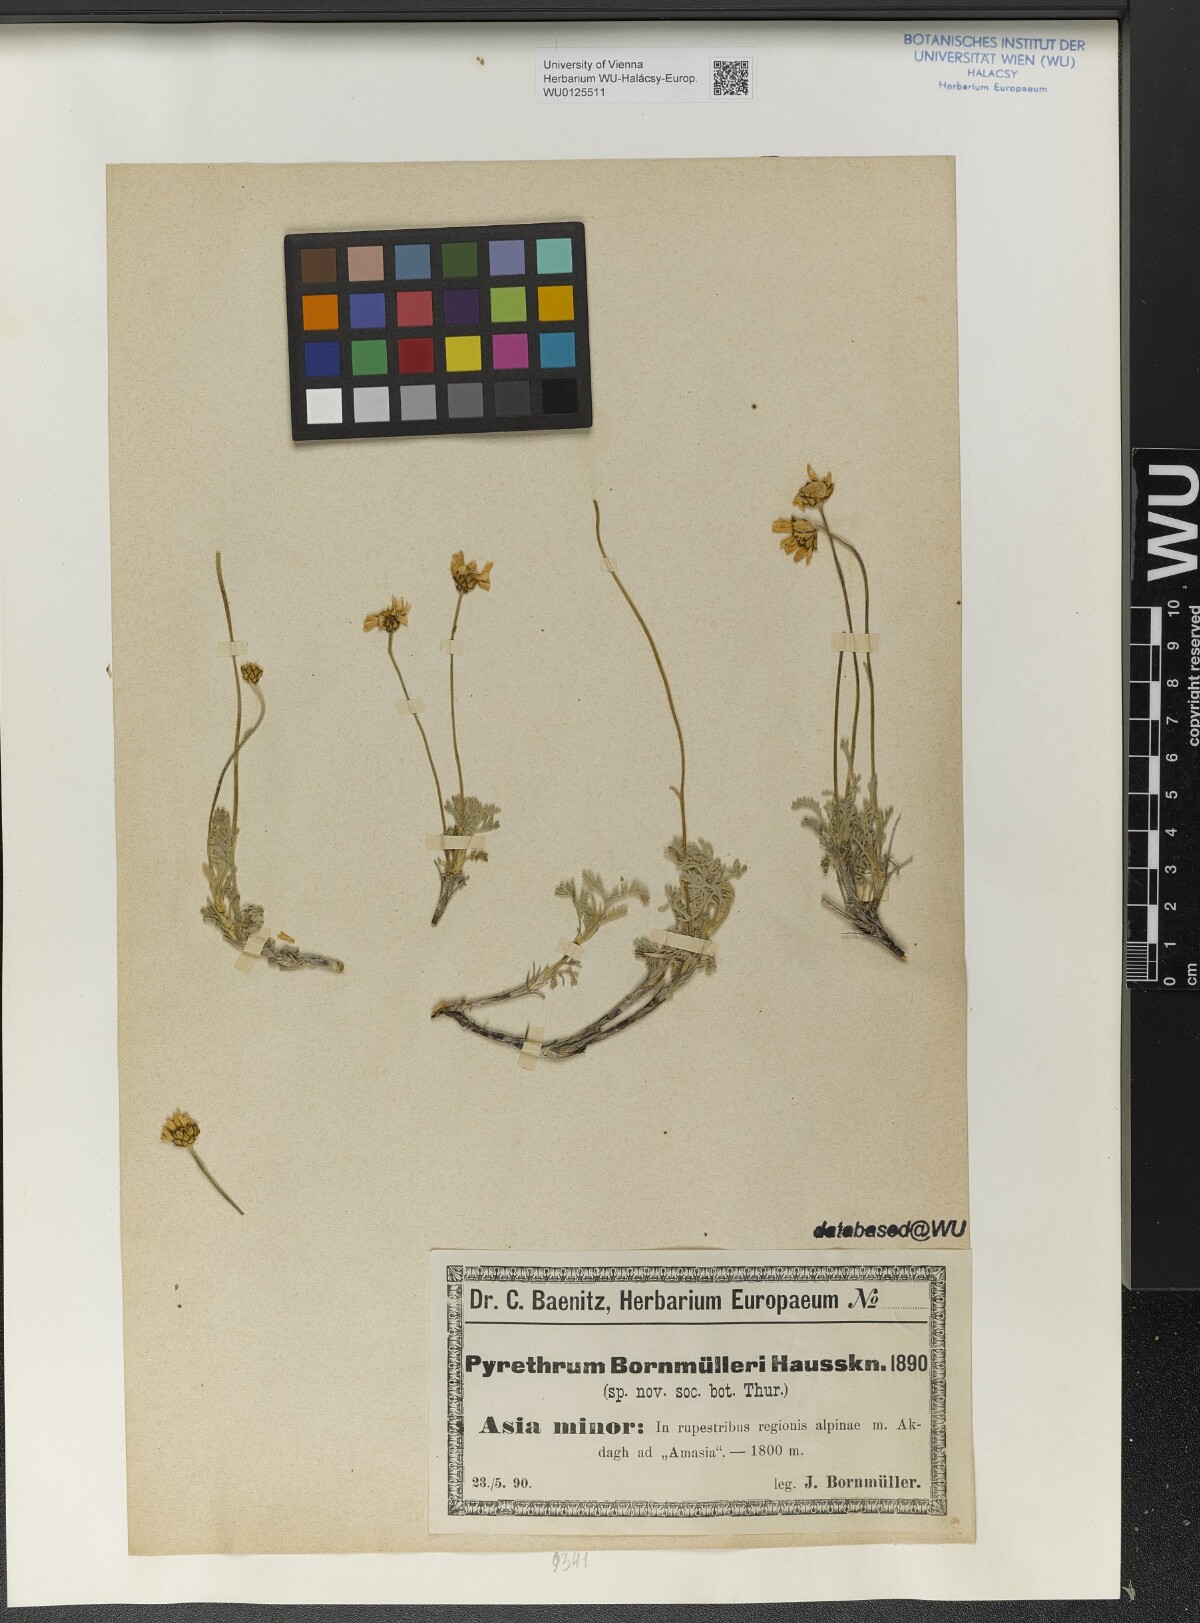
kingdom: Plantae
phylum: Tracheophyta
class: Magnoliopsida
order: Asterales
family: Asteraceae
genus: Tanacetum
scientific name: Tanacetum Pyrethrum bornmuelleri
